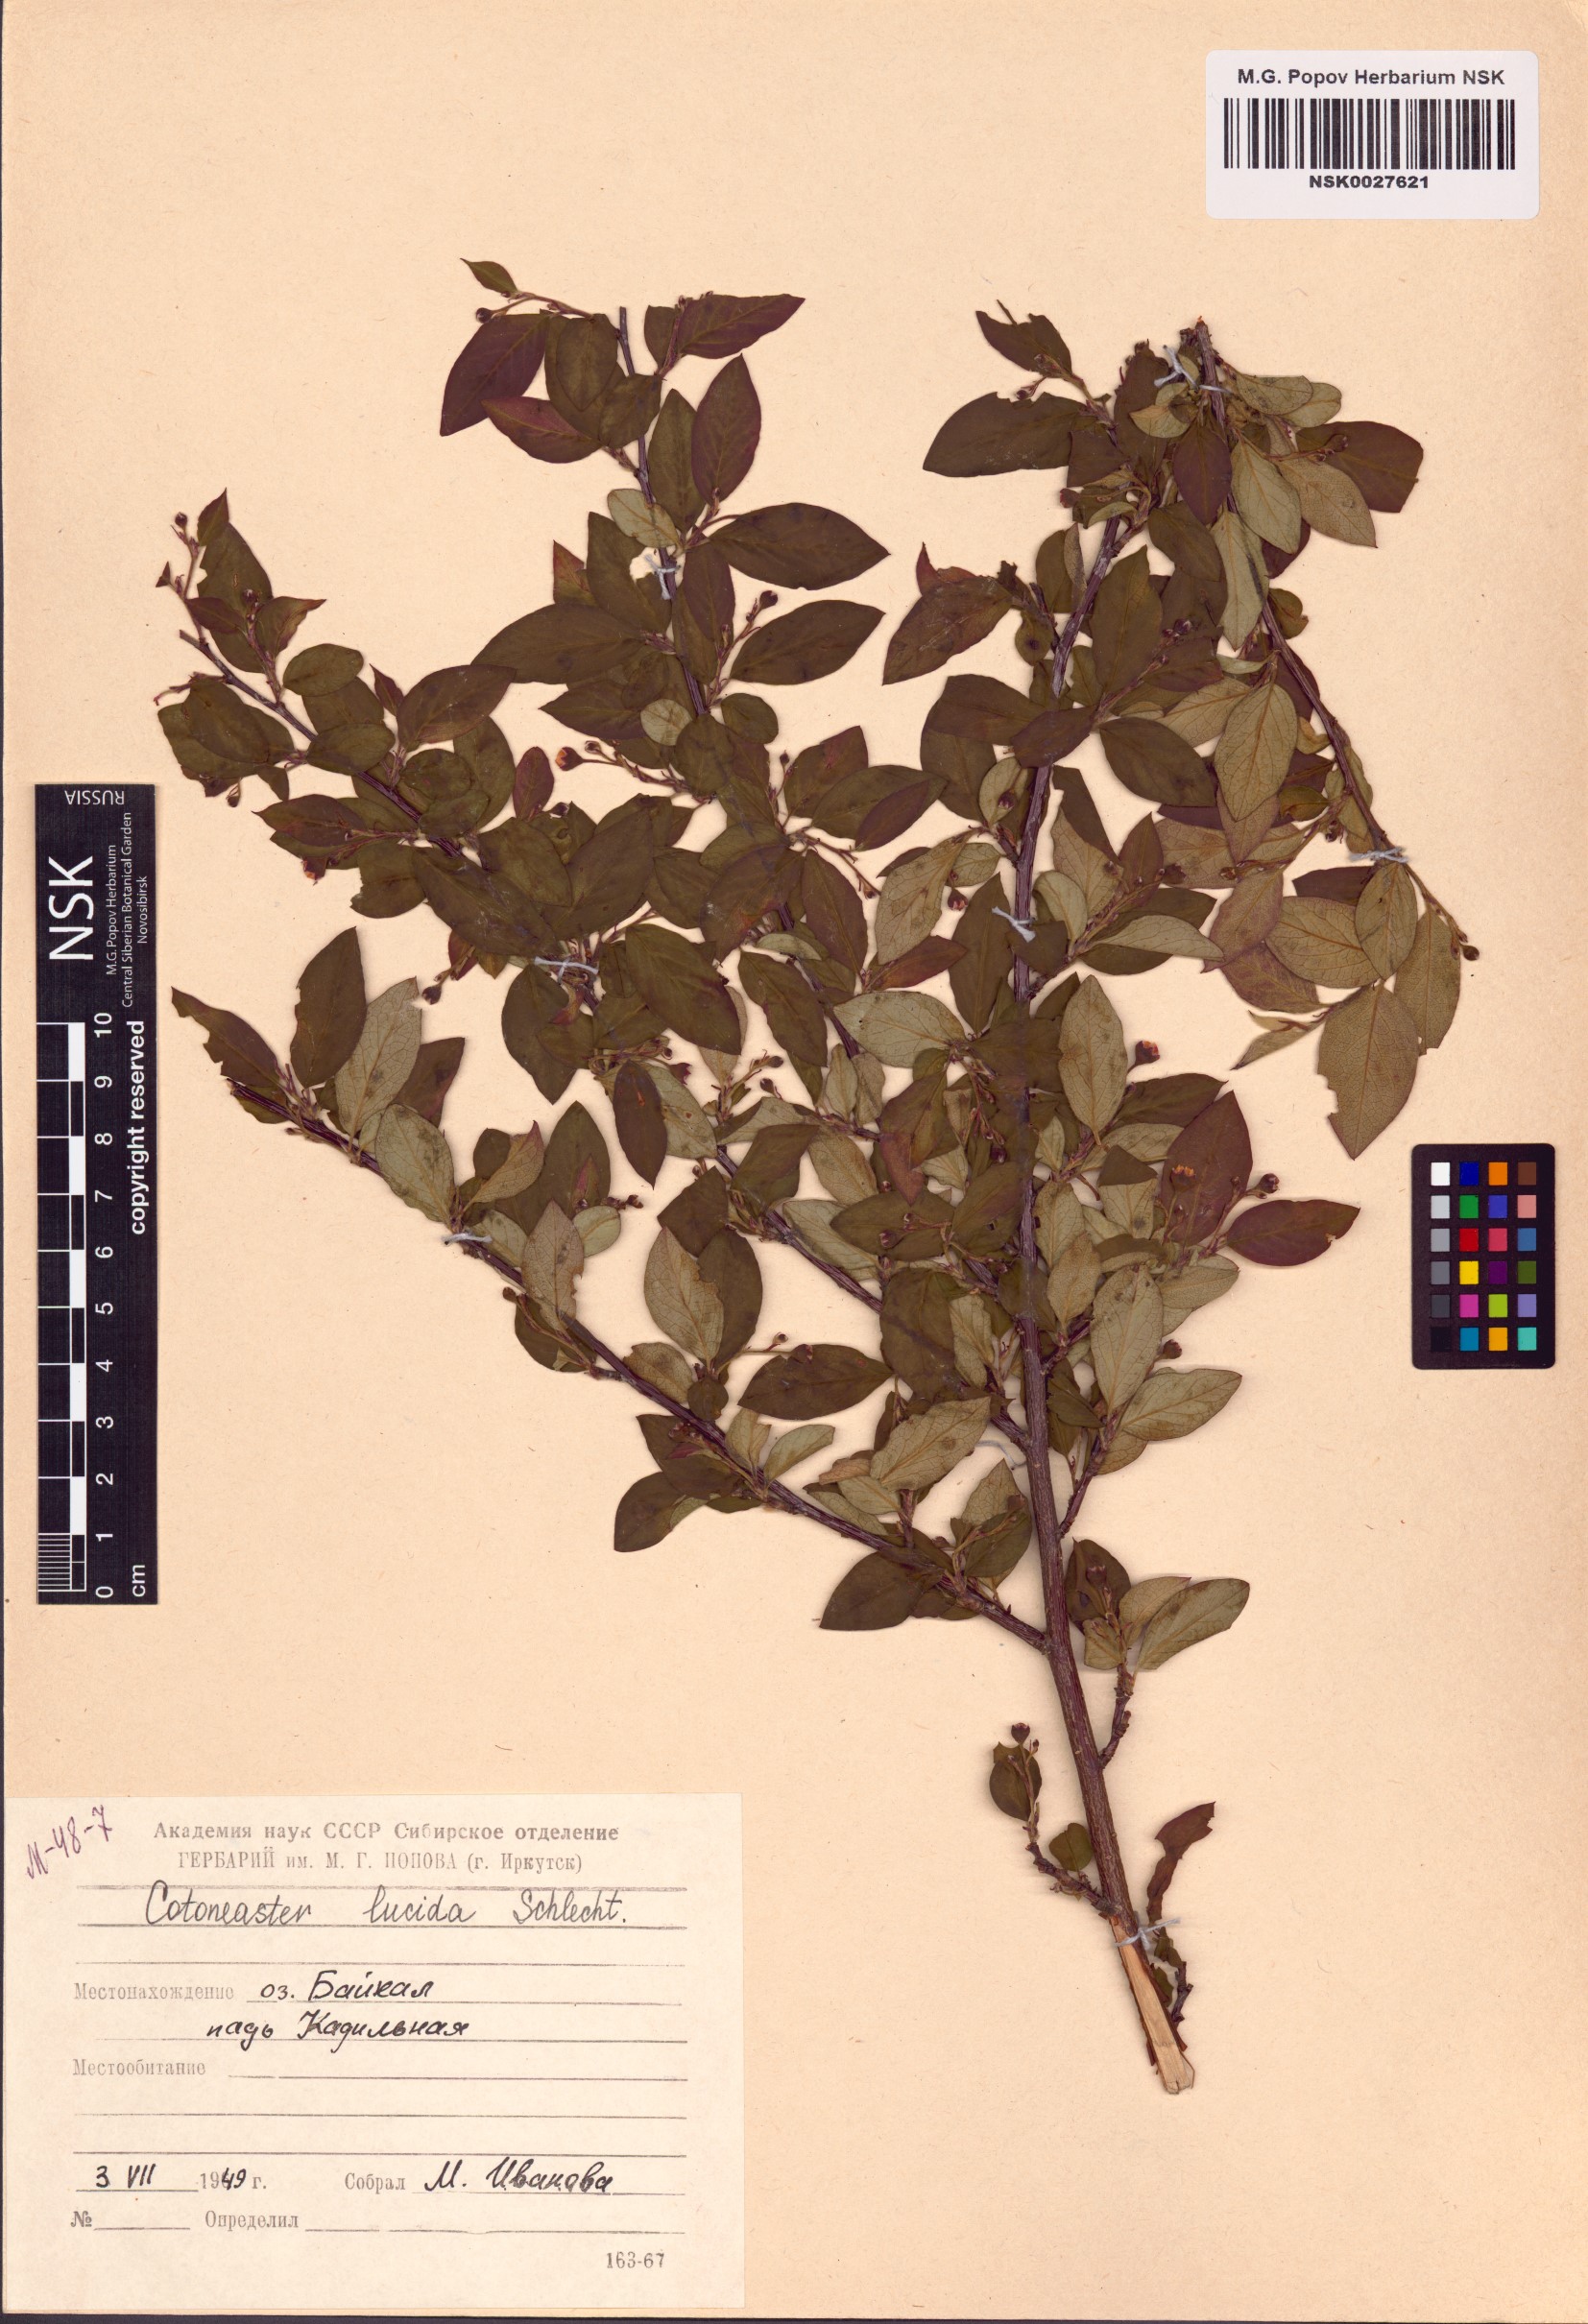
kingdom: Plantae
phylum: Tracheophyta
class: Magnoliopsida
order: Rosales
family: Rosaceae
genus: Cotoneaster
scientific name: Cotoneaster acutifolius
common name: Peking cotoneaster
